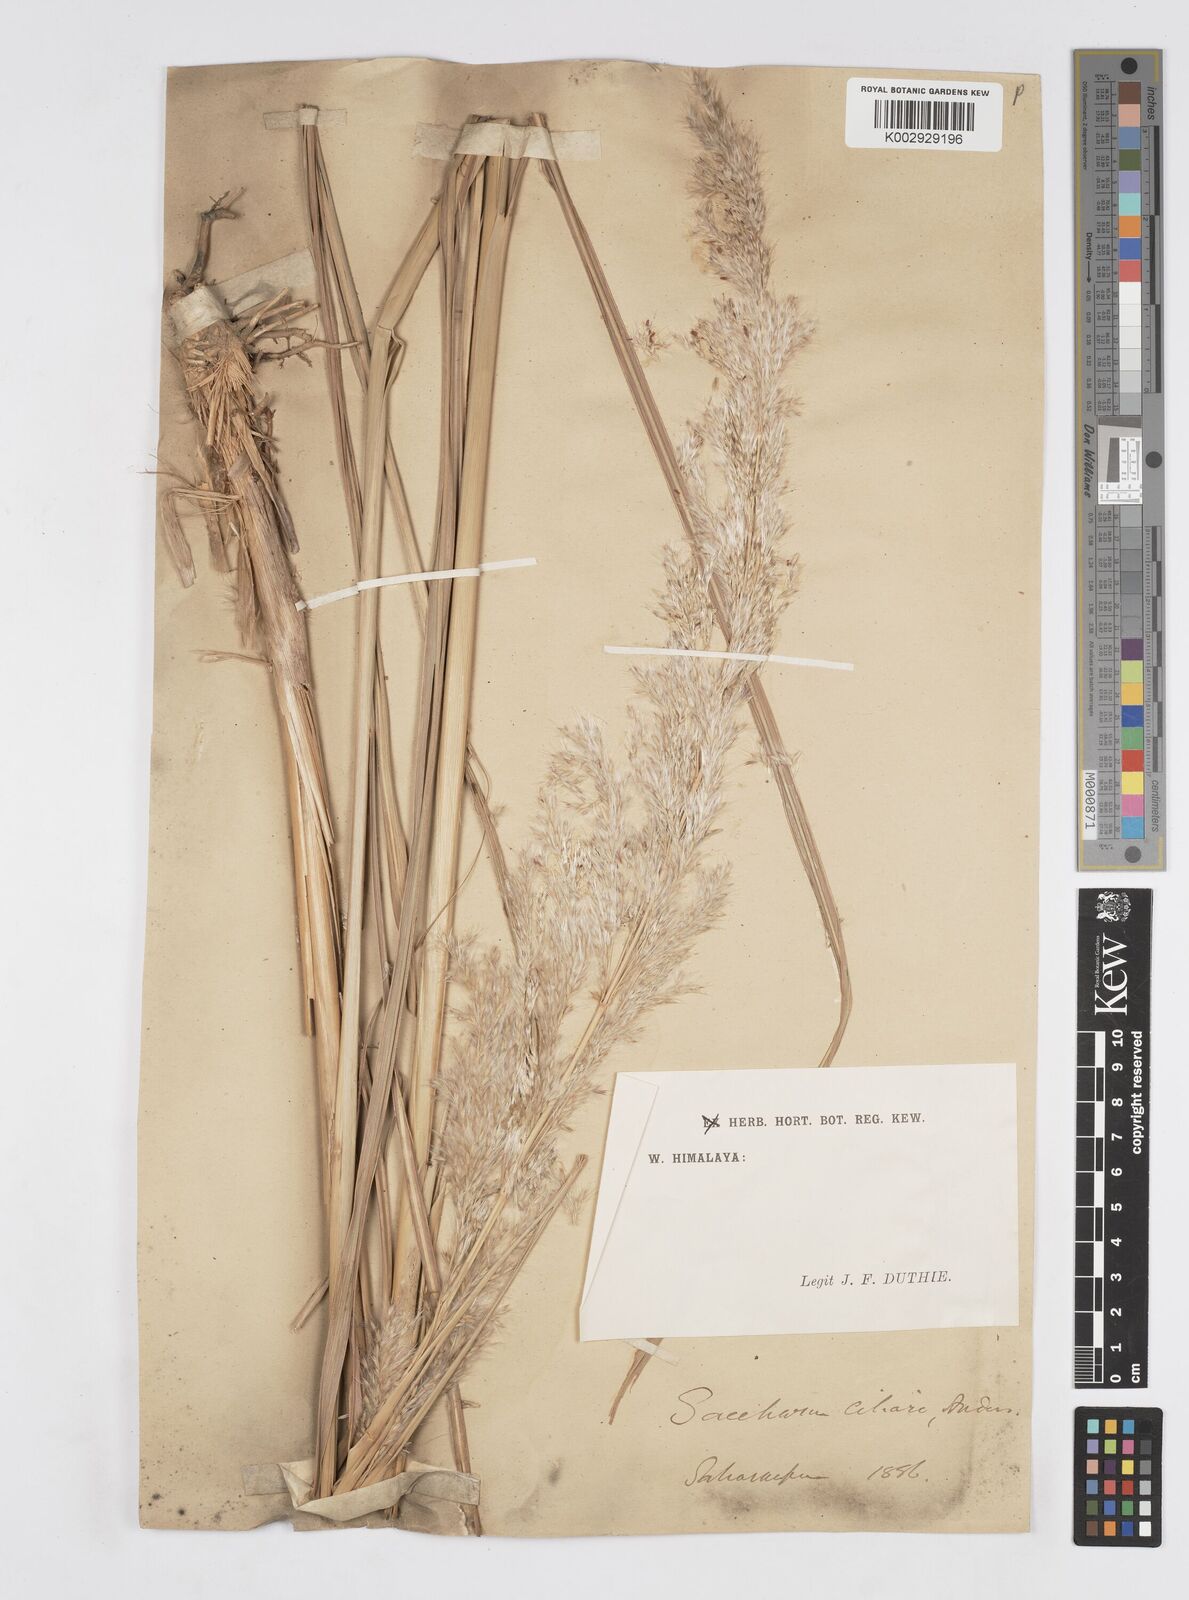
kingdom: Plantae
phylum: Tracheophyta
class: Liliopsida
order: Poales
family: Poaceae
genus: Tripidium
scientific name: Tripidium ravennae
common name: Ravenna grass
